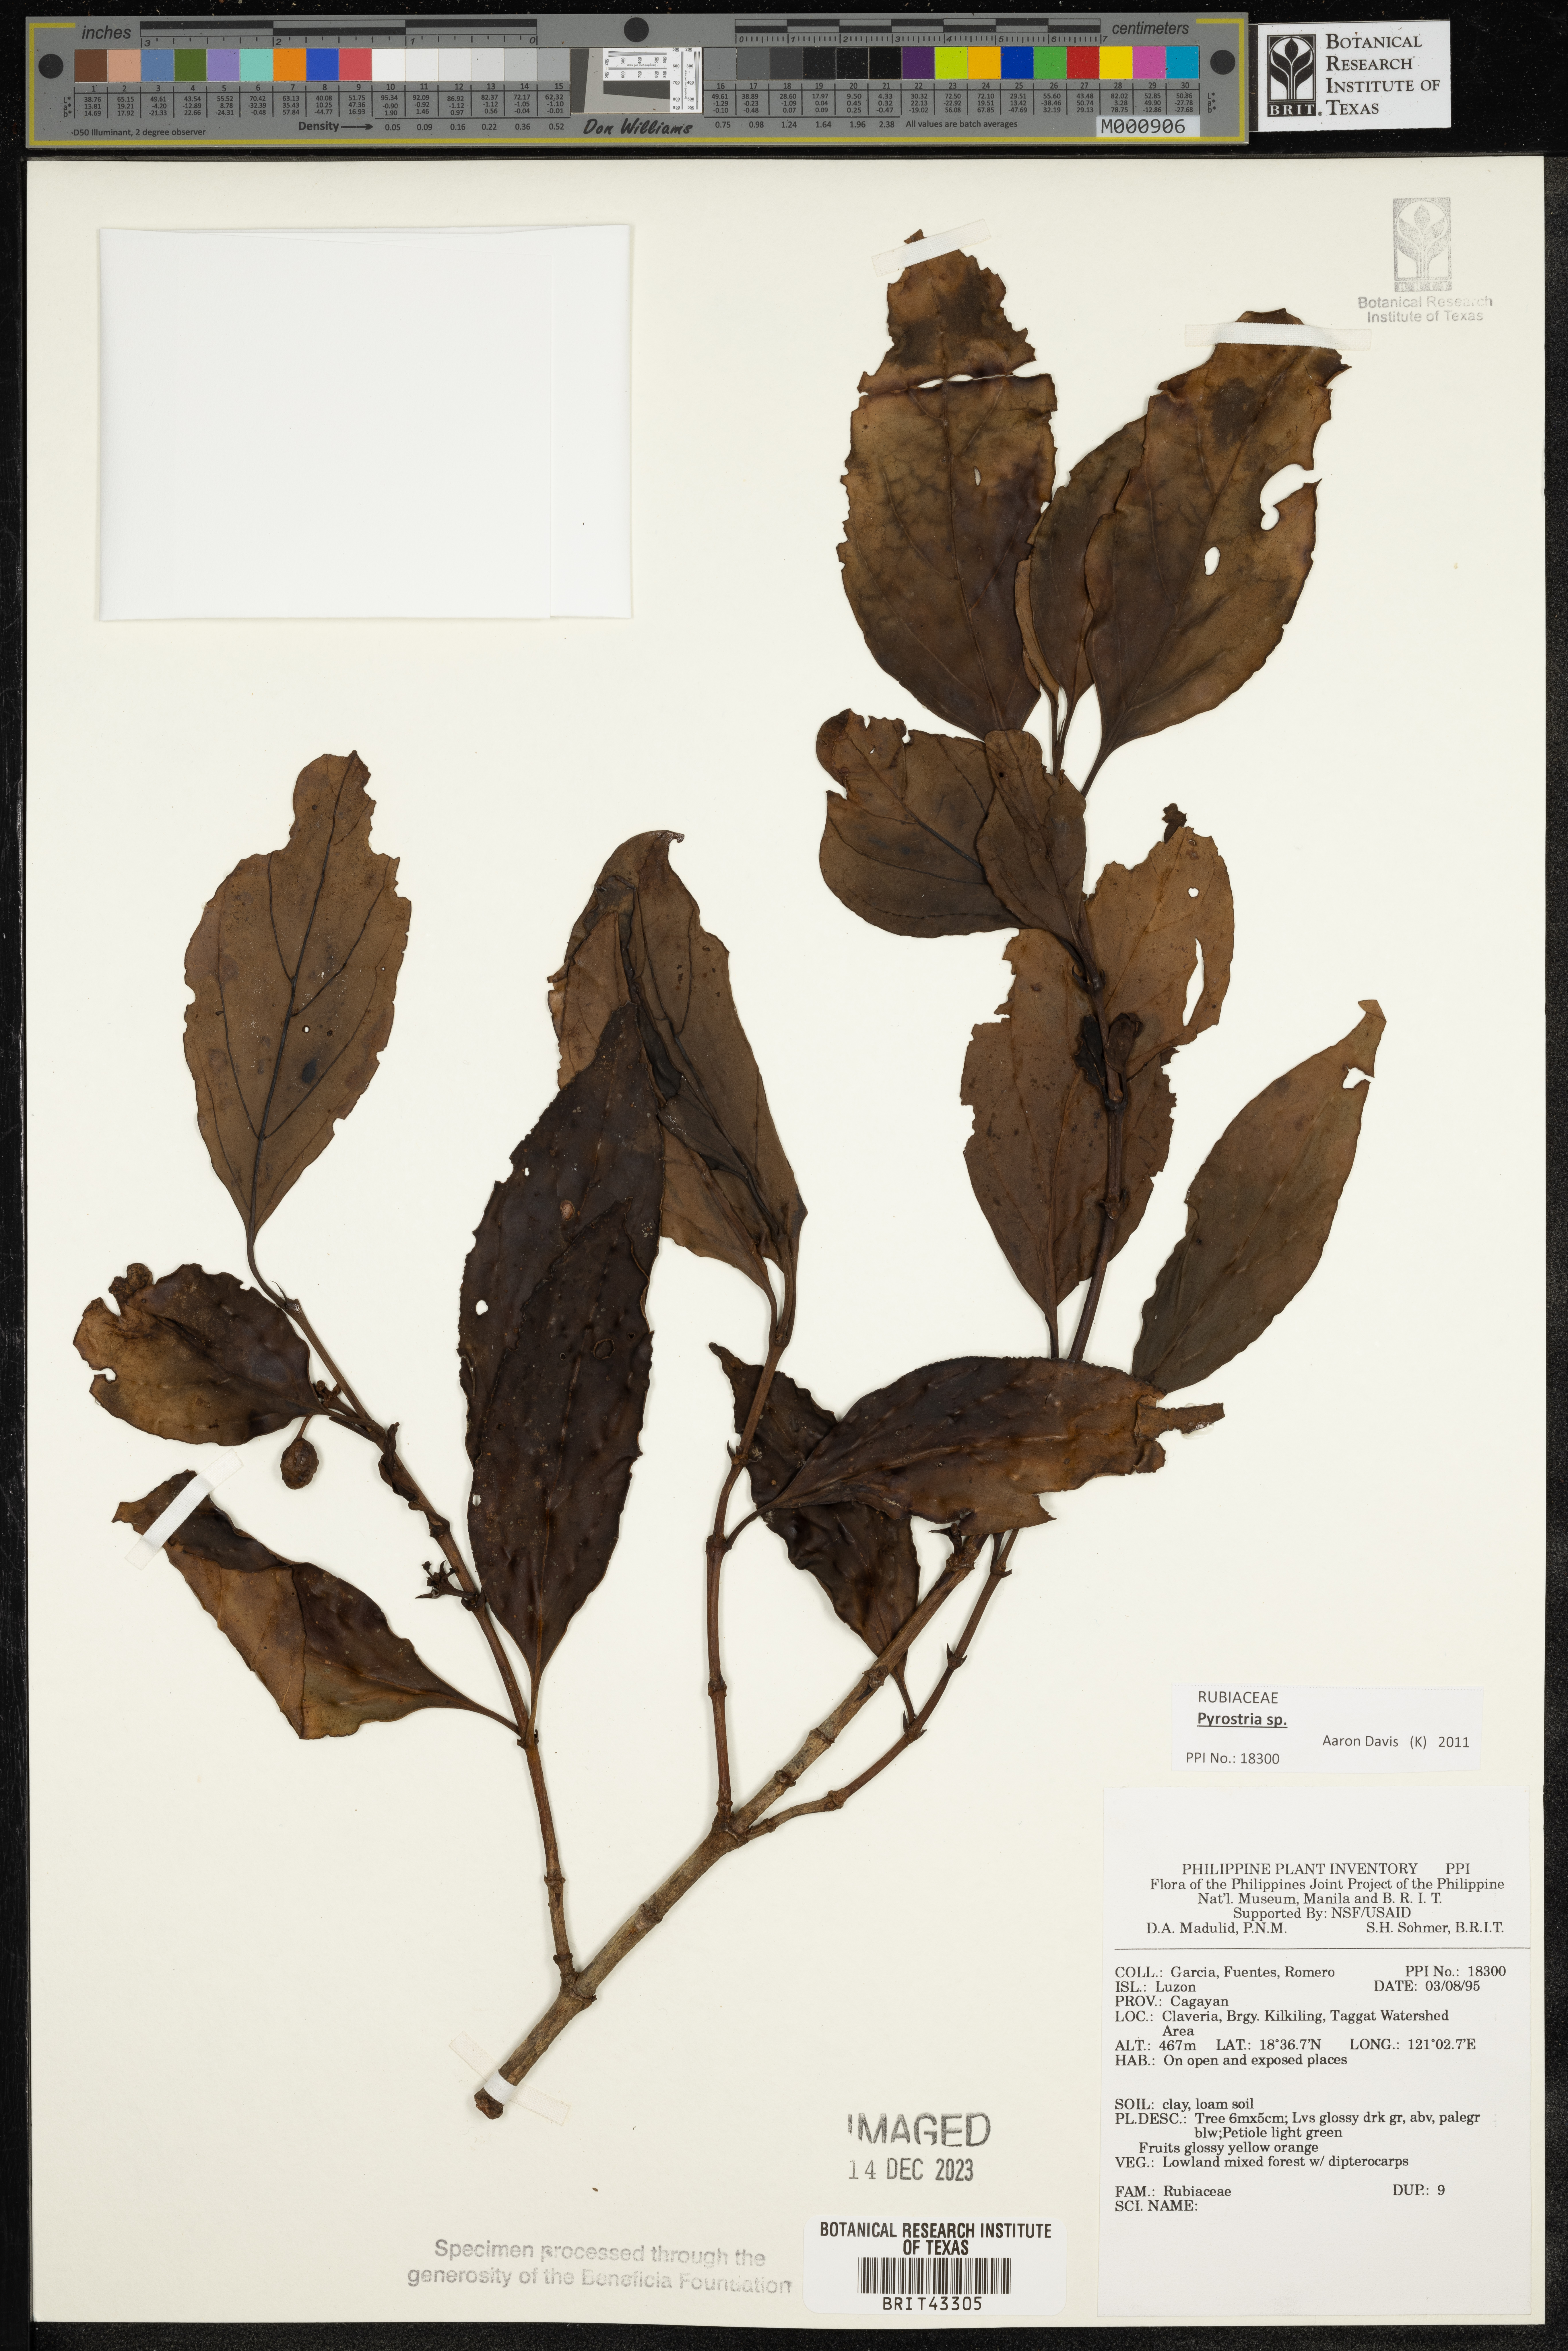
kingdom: Plantae
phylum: Tracheophyta
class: Magnoliopsida
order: Gentianales
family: Rubiaceae
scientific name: Rubiaceae
